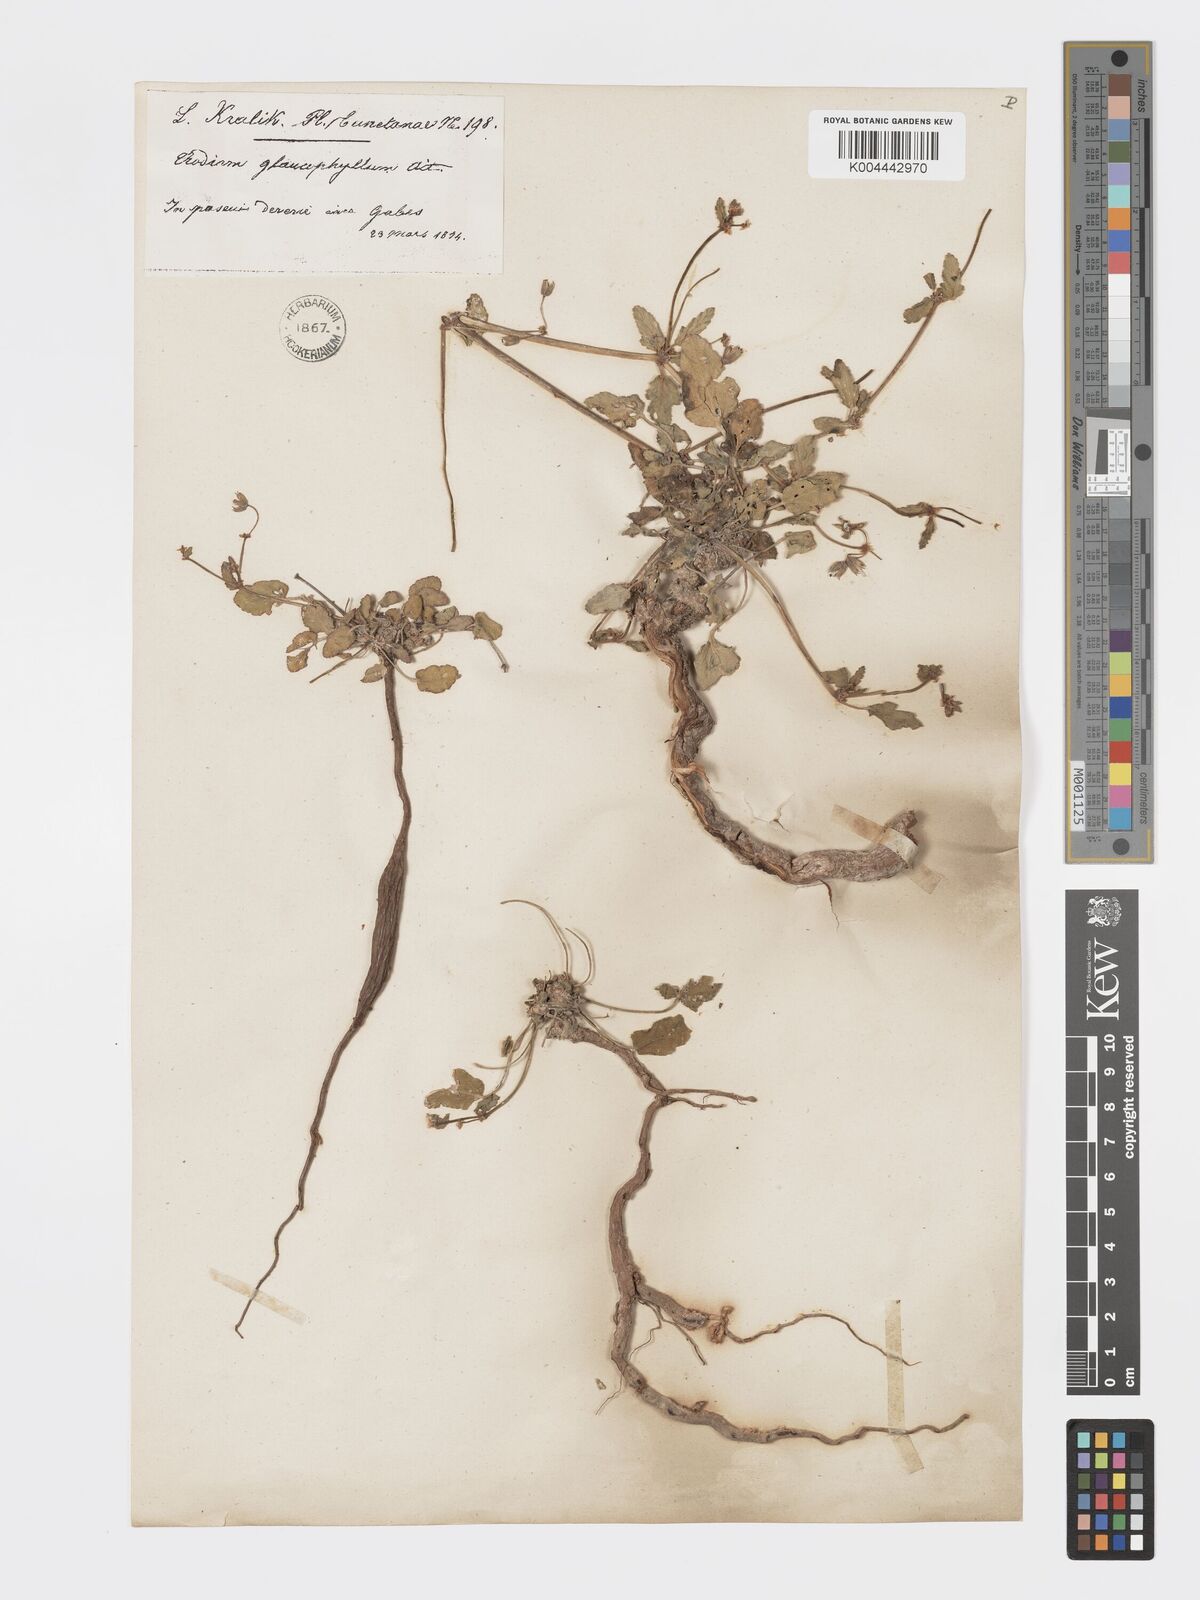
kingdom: Plantae
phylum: Tracheophyta
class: Magnoliopsida
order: Geraniales
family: Geraniaceae
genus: Erodium
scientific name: Erodium glaucophyllum
